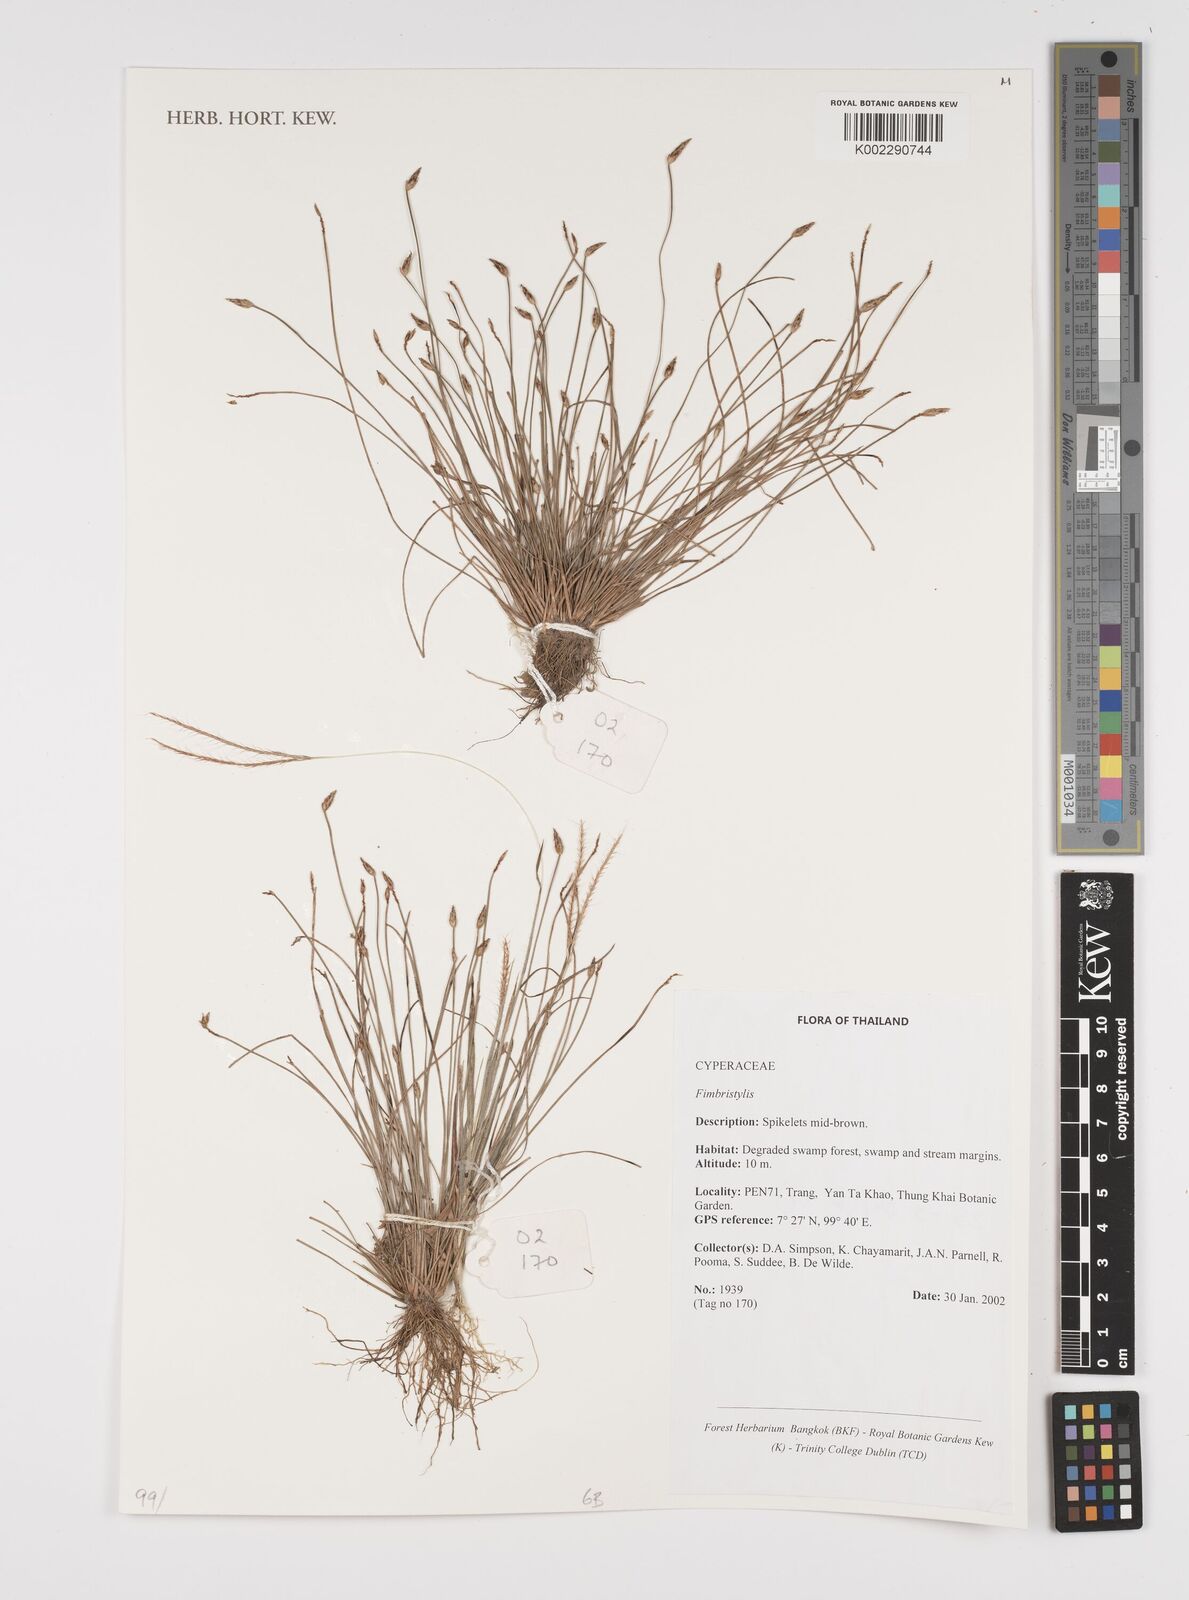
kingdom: Plantae
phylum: Tracheophyta
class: Liliopsida
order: Poales
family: Cyperaceae
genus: Fimbristylis
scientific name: Fimbristylis
